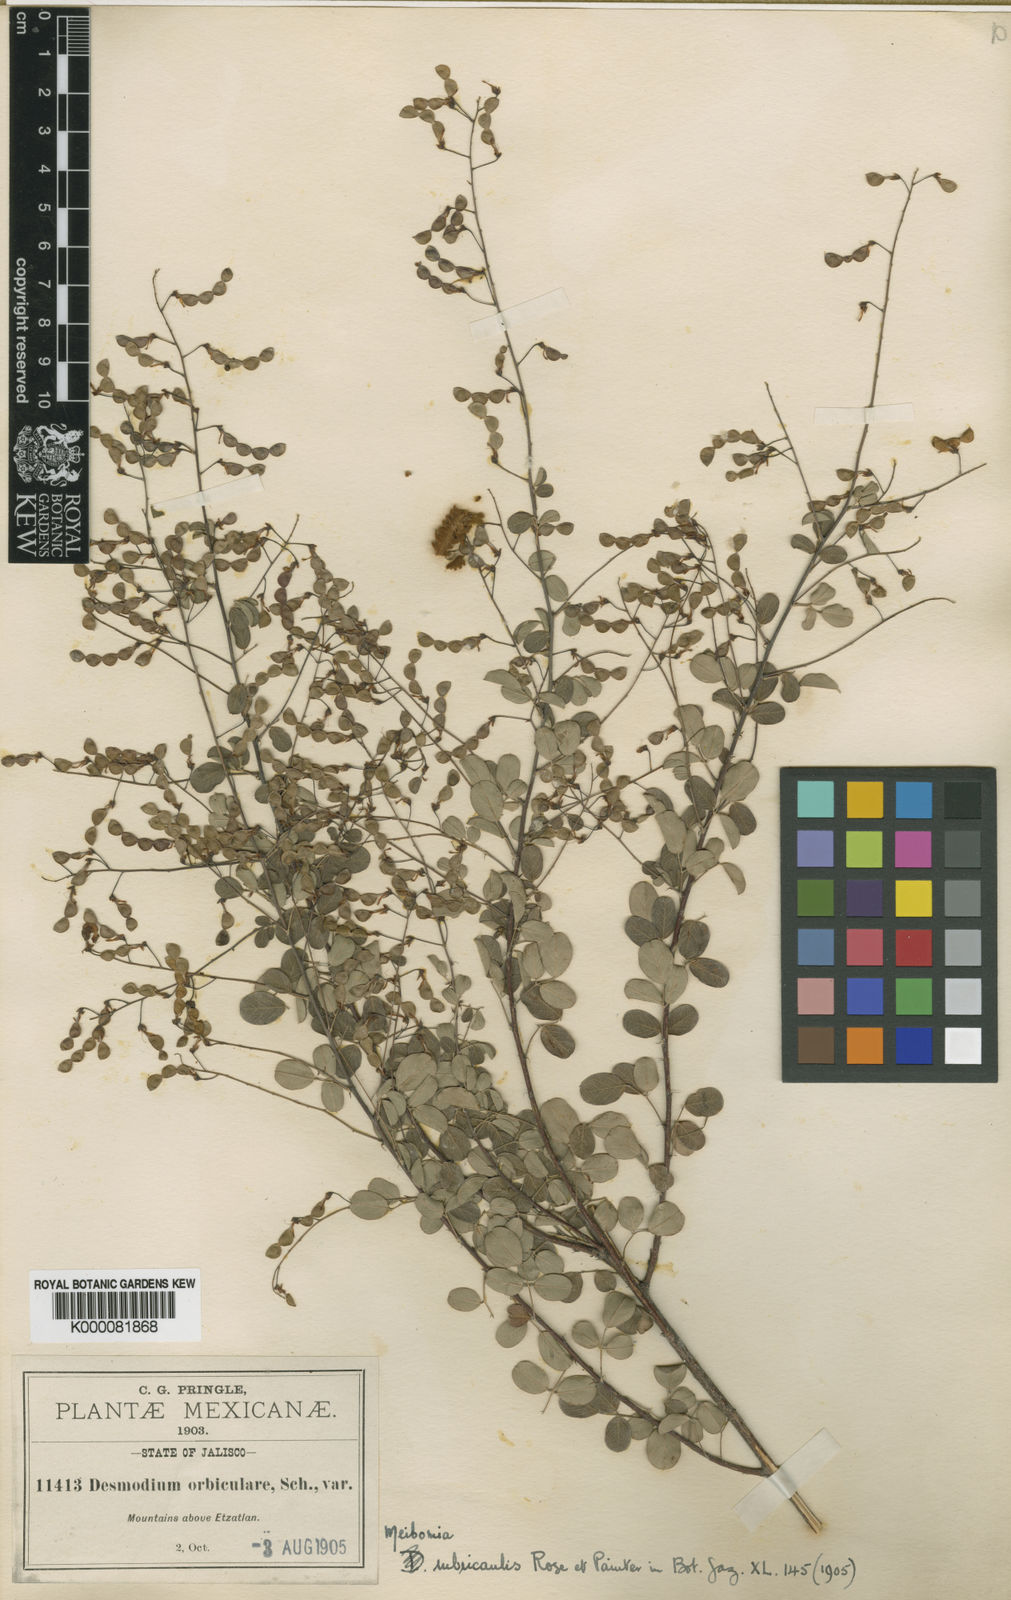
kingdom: Plantae
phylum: Tracheophyta
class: Magnoliopsida
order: Fabales
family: Fabaceae
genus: Desmodium
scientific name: Desmodium
